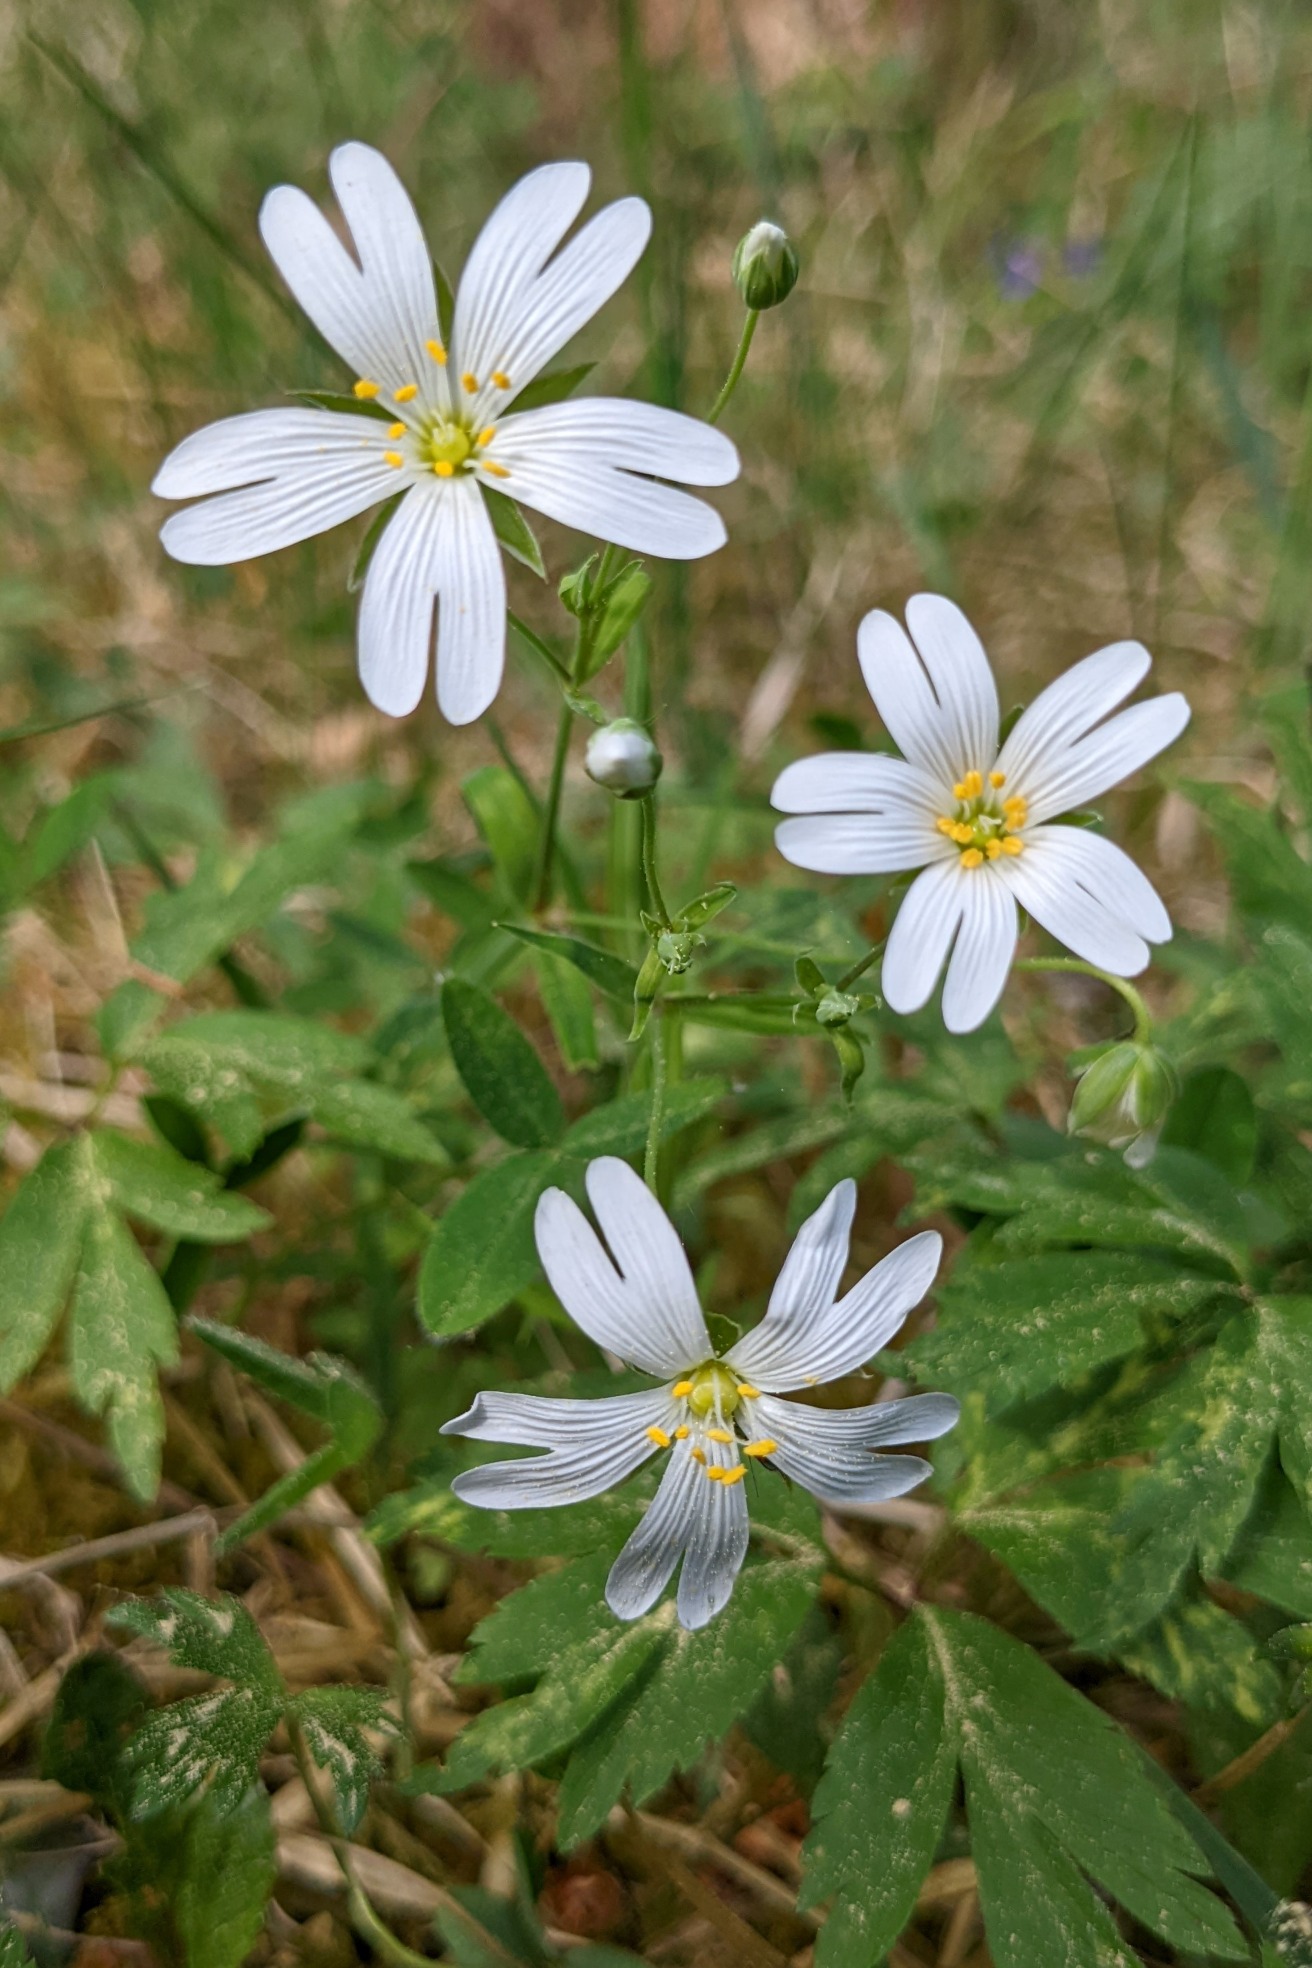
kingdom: Plantae
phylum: Tracheophyta
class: Magnoliopsida
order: Caryophyllales
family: Caryophyllaceae
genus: Rabelera
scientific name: Rabelera holostea
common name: Stor fladstjerne
